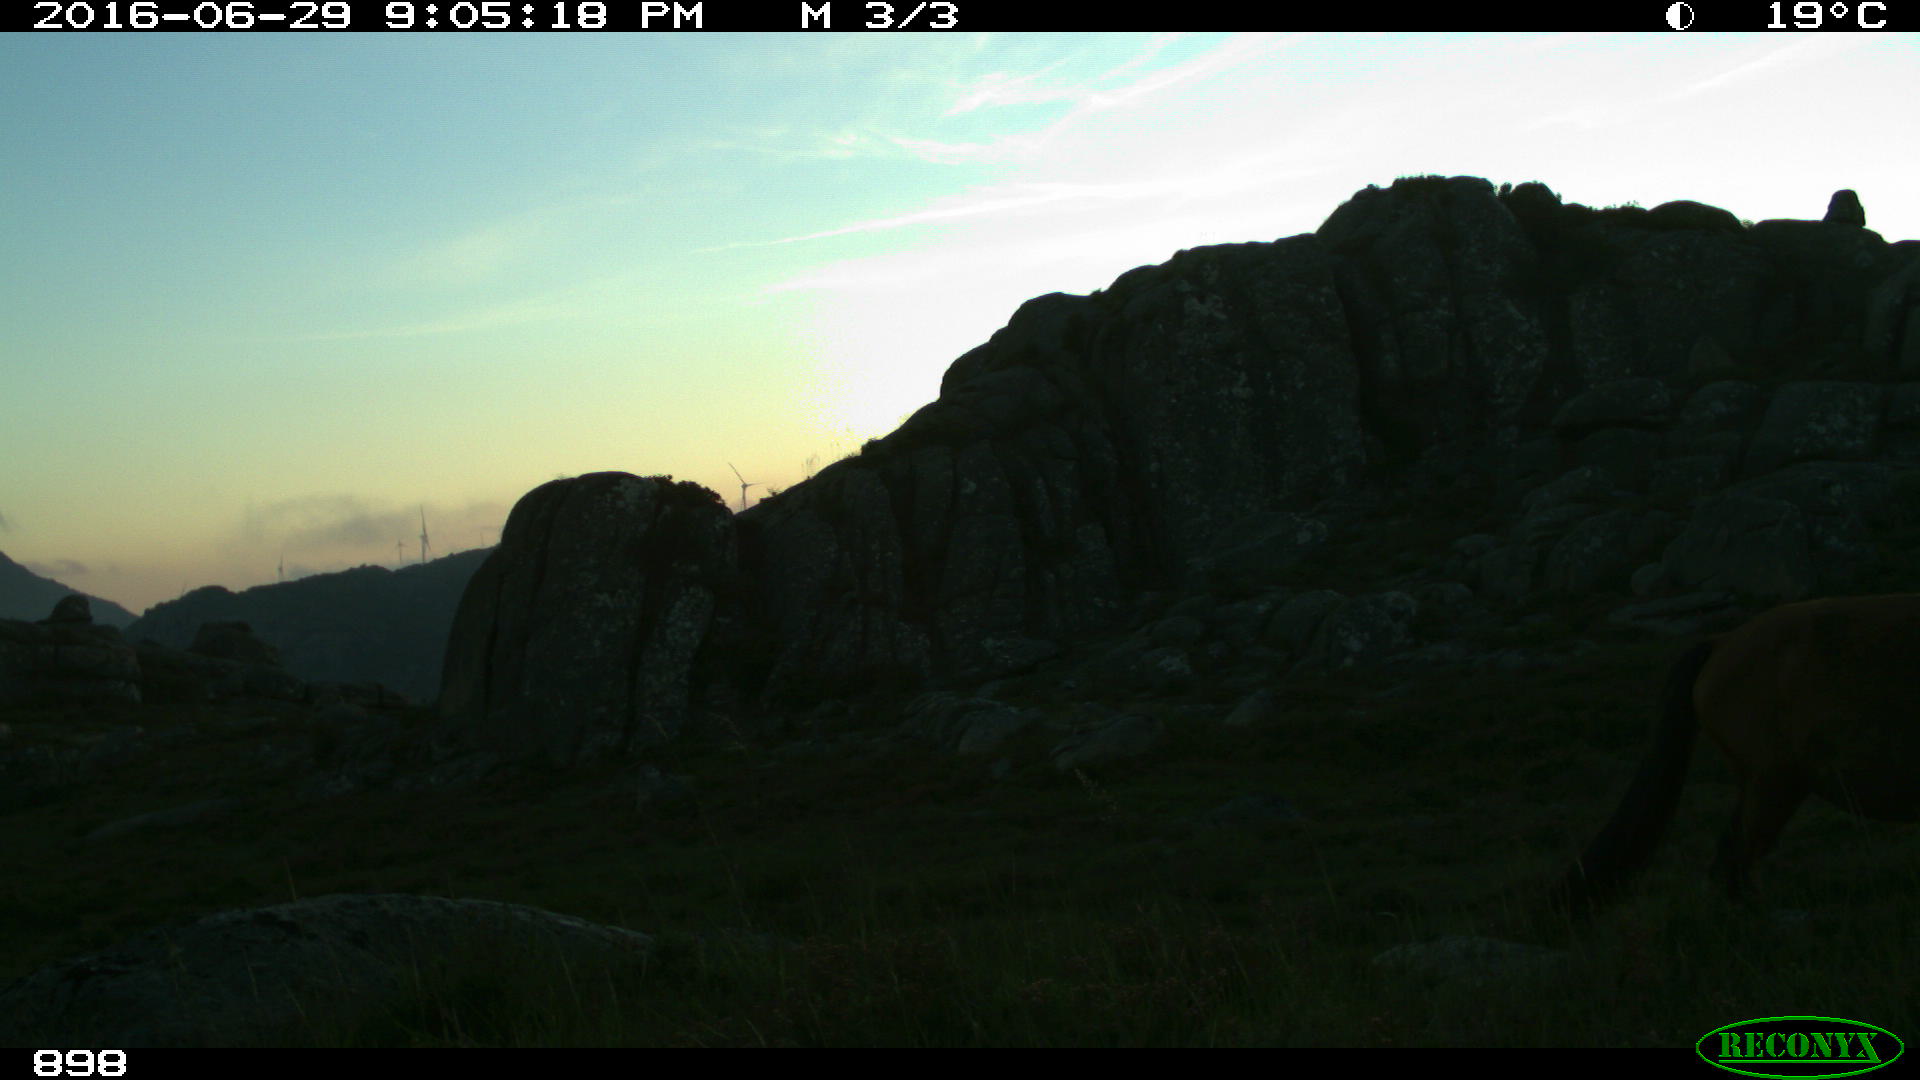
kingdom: Animalia
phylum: Chordata
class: Mammalia
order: Perissodactyla
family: Equidae
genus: Equus
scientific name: Equus caballus
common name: Horse
